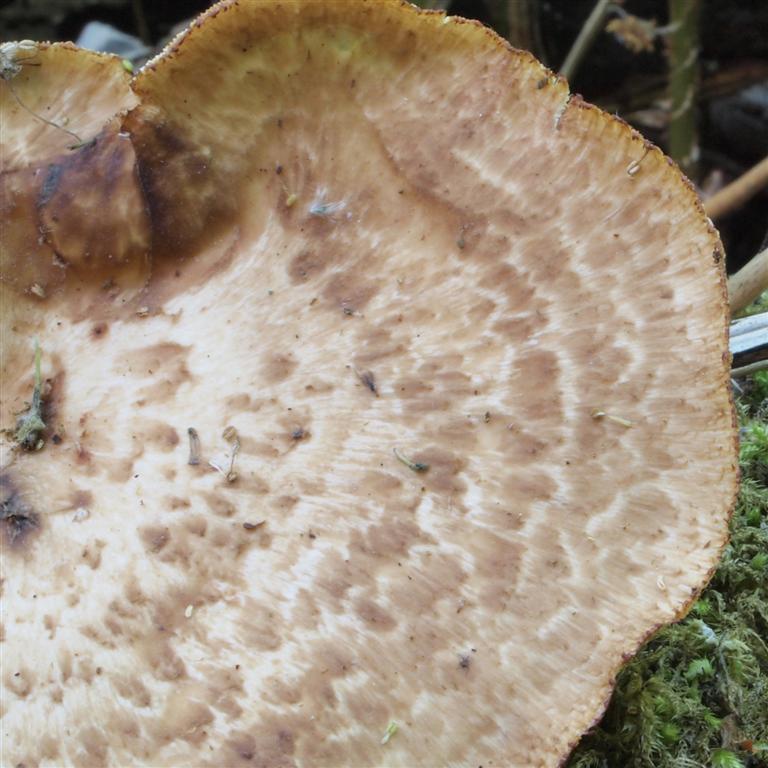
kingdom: Fungi
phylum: Basidiomycota
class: Agaricomycetes
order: Polyporales
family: Polyporaceae
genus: Polyporus
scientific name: Polyporus tuberaster
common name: knoldet stilkporesvamp
